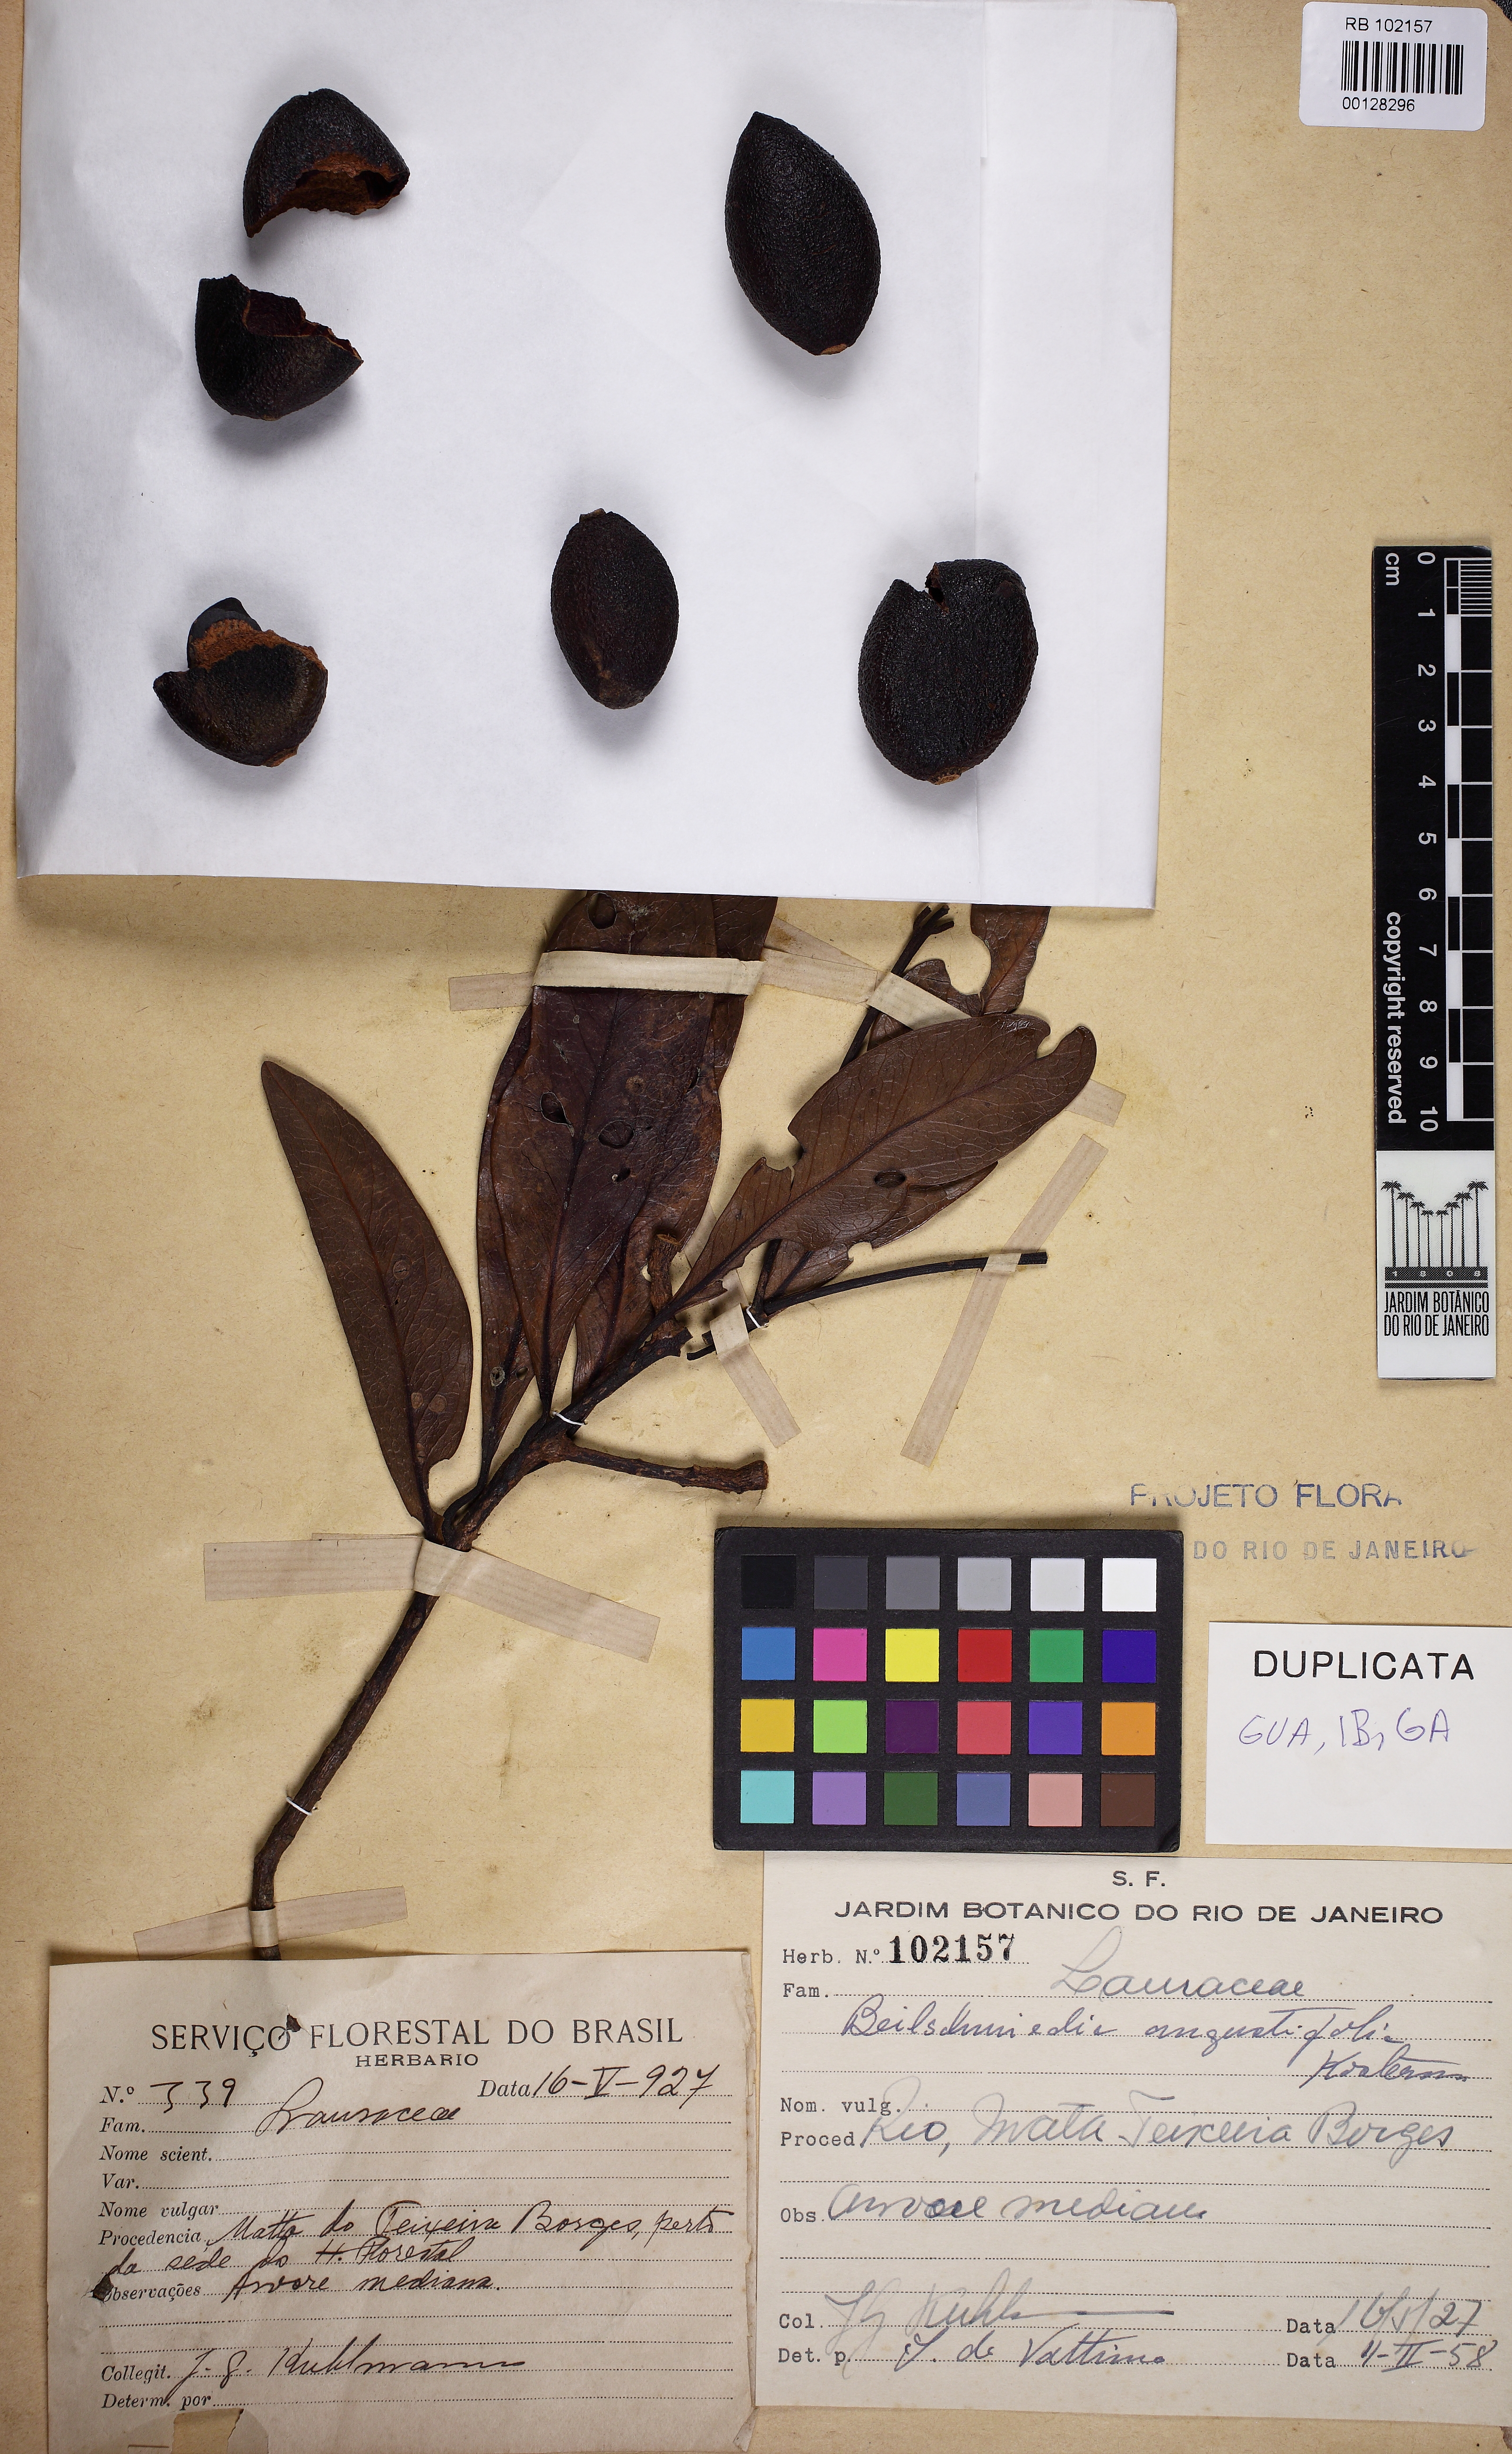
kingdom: Plantae
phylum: Tracheophyta
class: Magnoliopsida
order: Laurales
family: Lauraceae
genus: Beilschmiedia
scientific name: Beilschmiedia angustifolia
